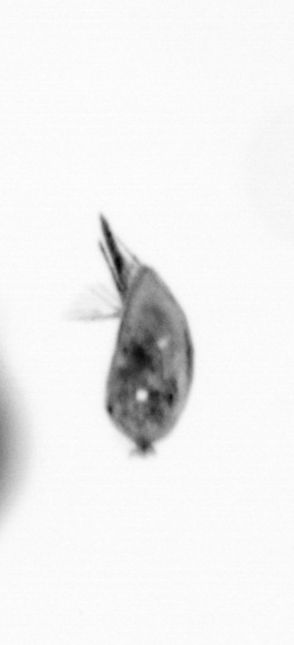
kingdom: Animalia
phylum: Arthropoda
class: Maxillopoda
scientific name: Maxillopoda
